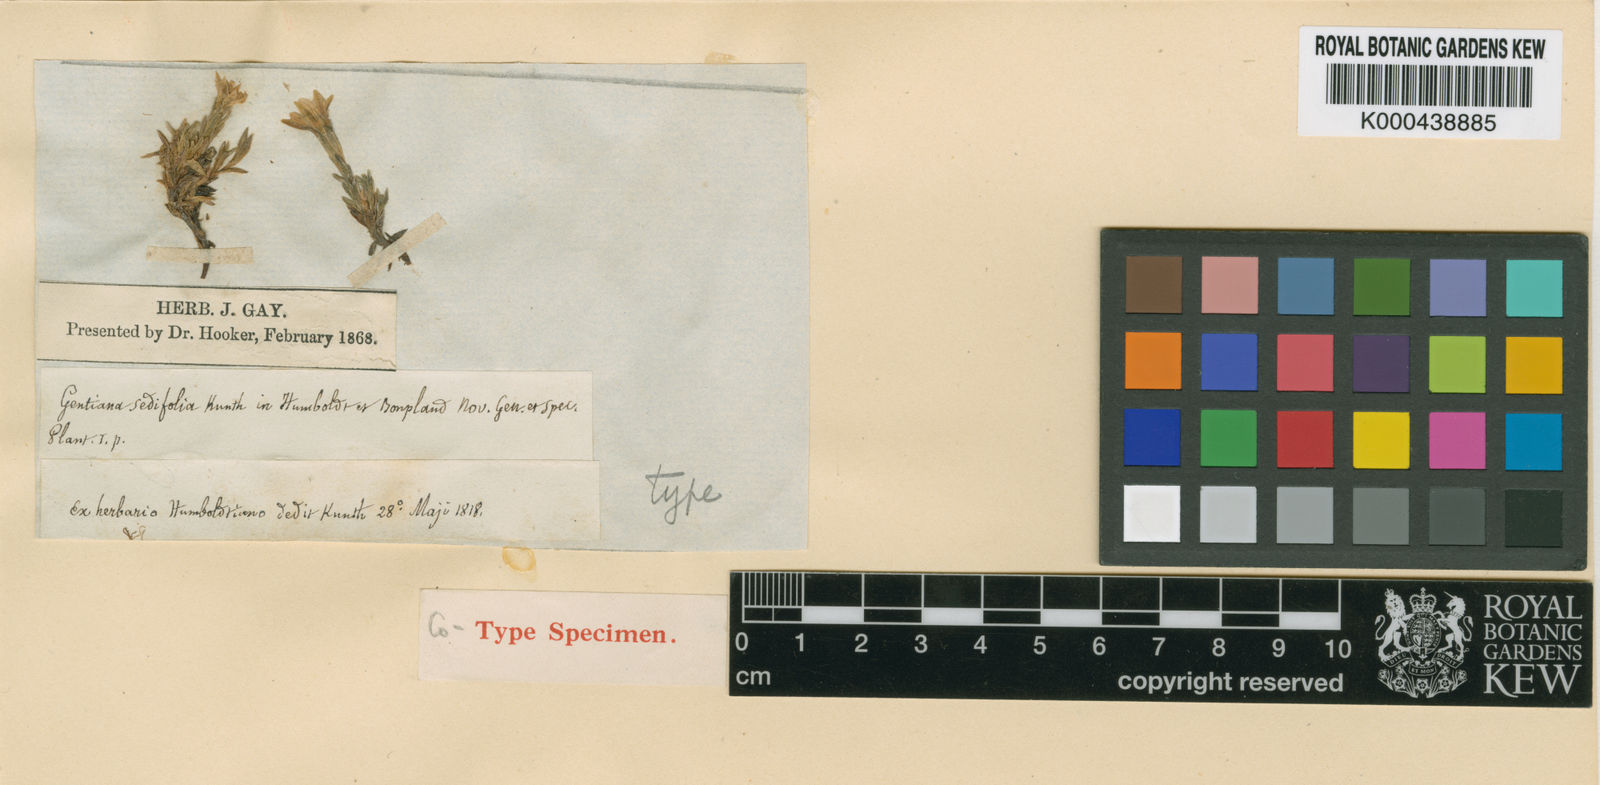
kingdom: Plantae
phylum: Tracheophyta
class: Magnoliopsida
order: Gentianales
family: Gentianaceae
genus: Gentiana
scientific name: Gentiana prostrata
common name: Moss gentian
